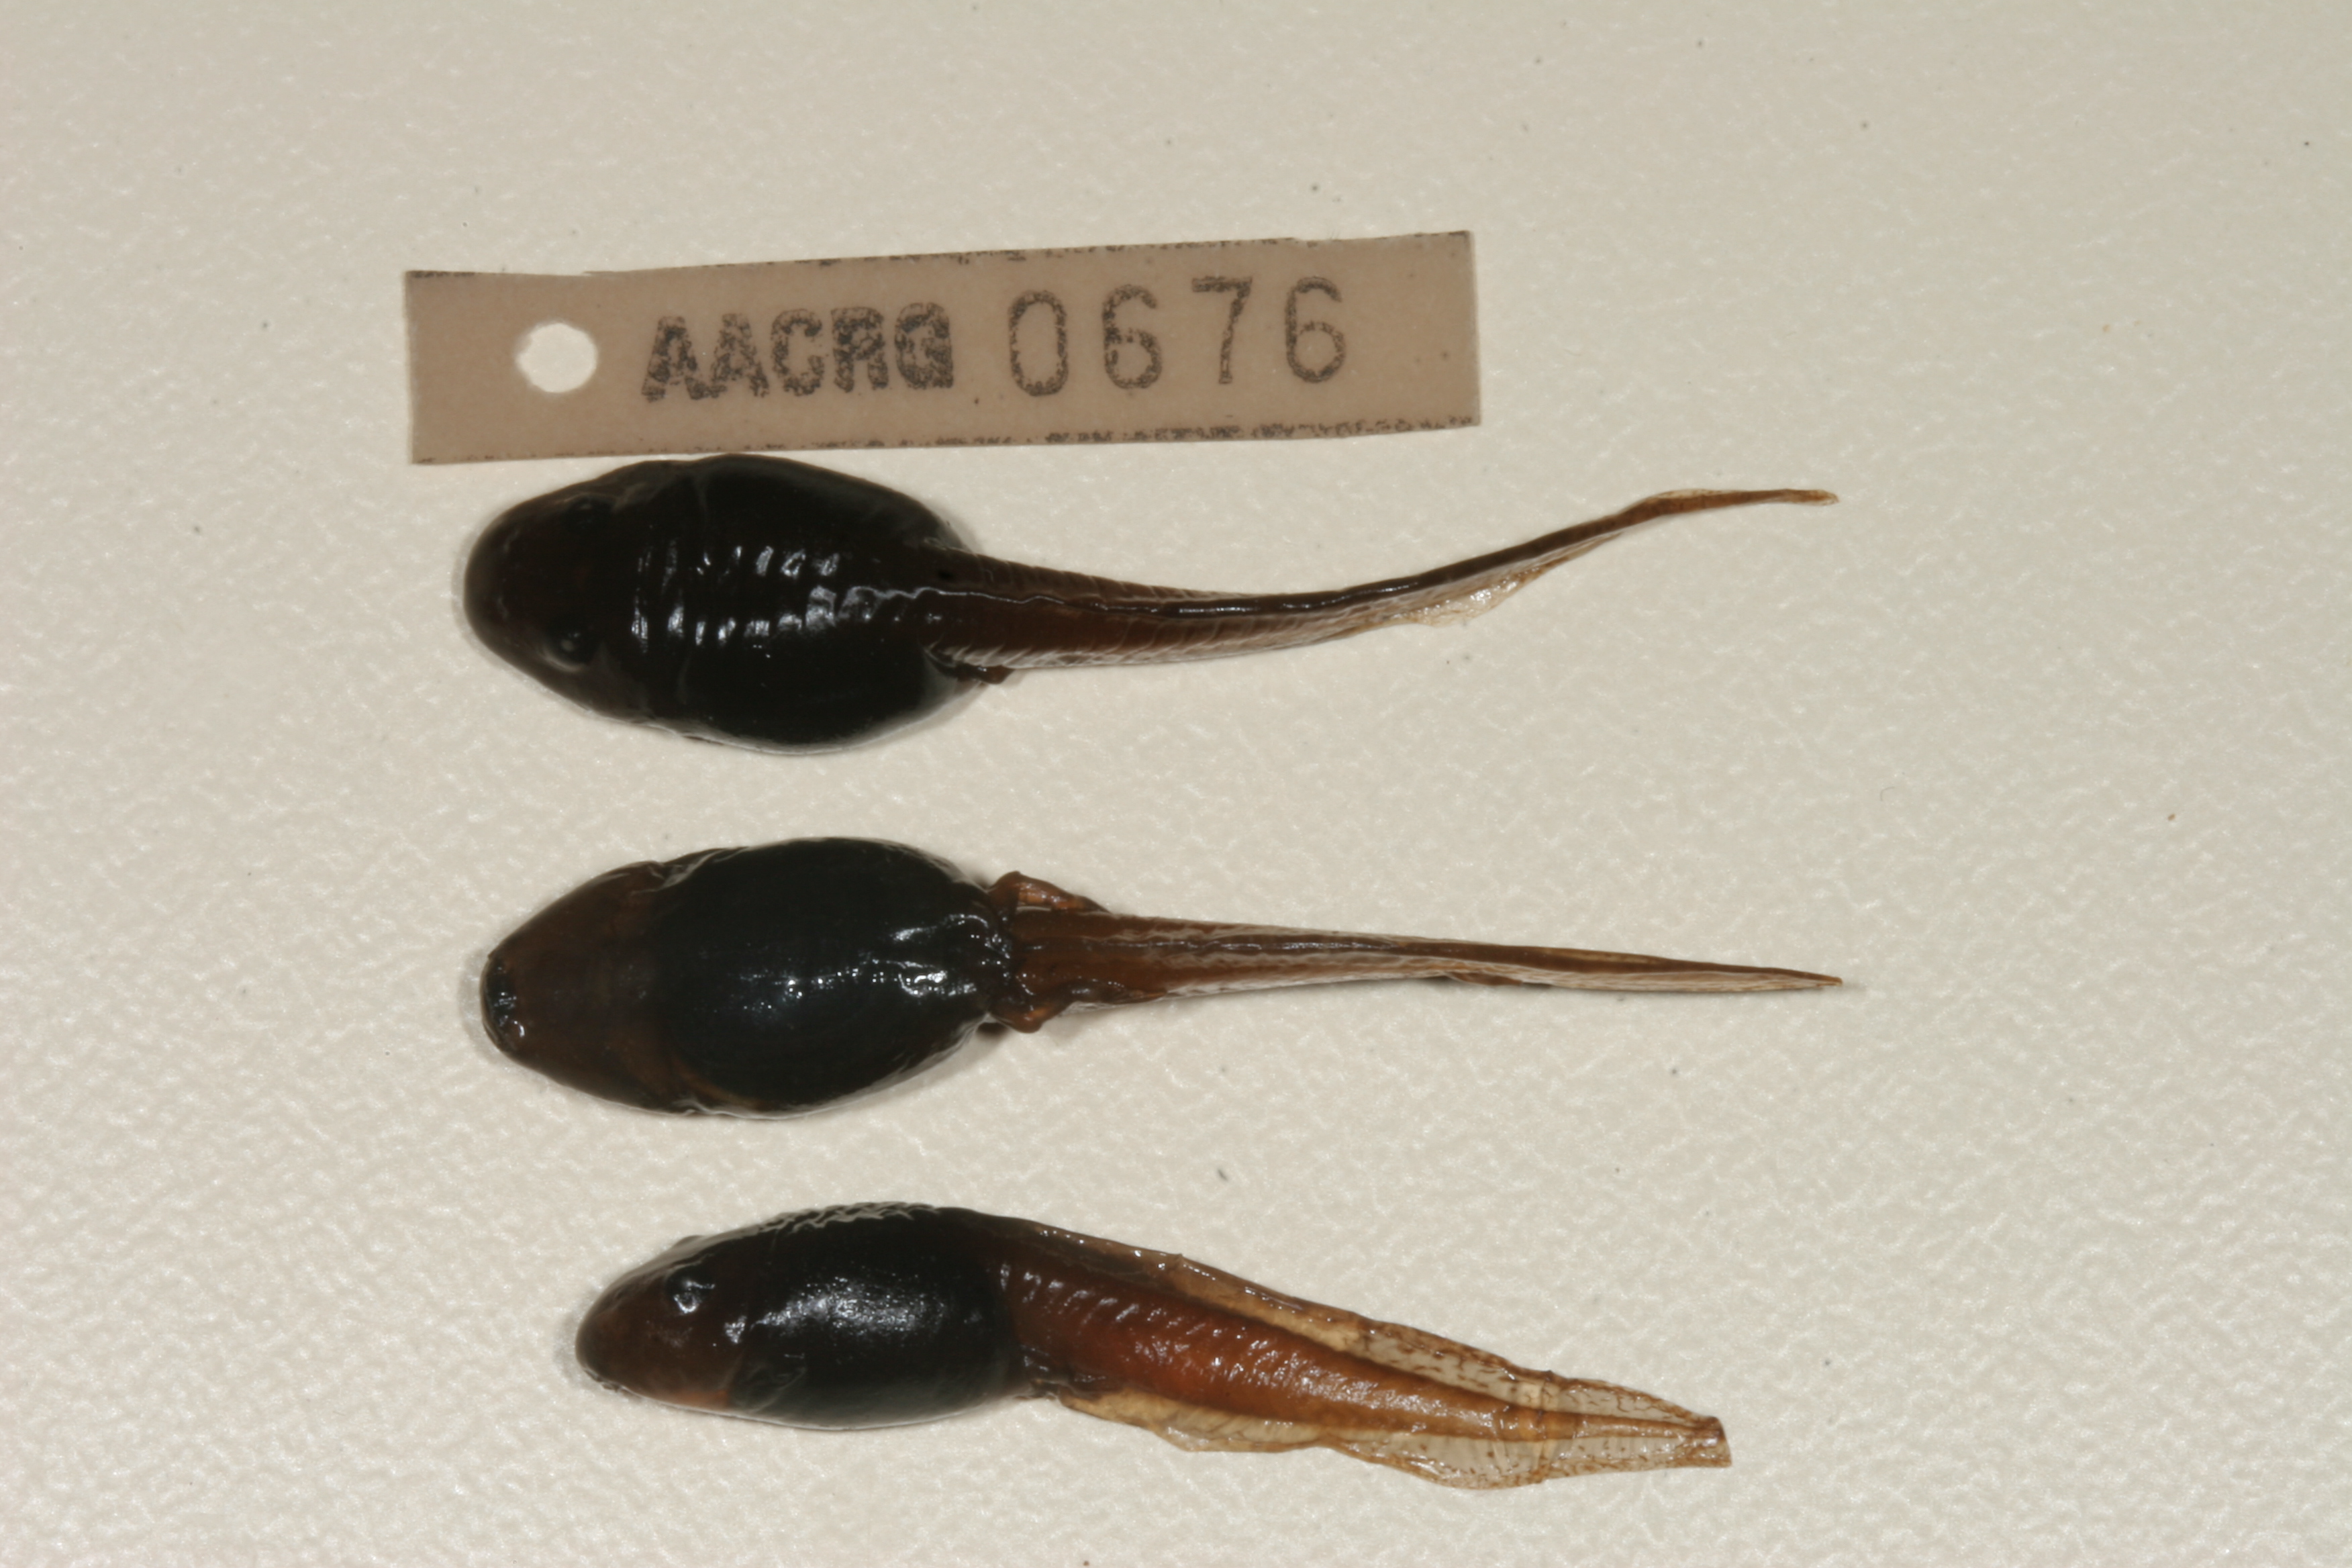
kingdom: Animalia
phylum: Chordata
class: Amphibia
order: Anura
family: Pyxicephalidae
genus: Strongylopus
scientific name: Strongylopus bonaespei
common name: Banded stream frog
